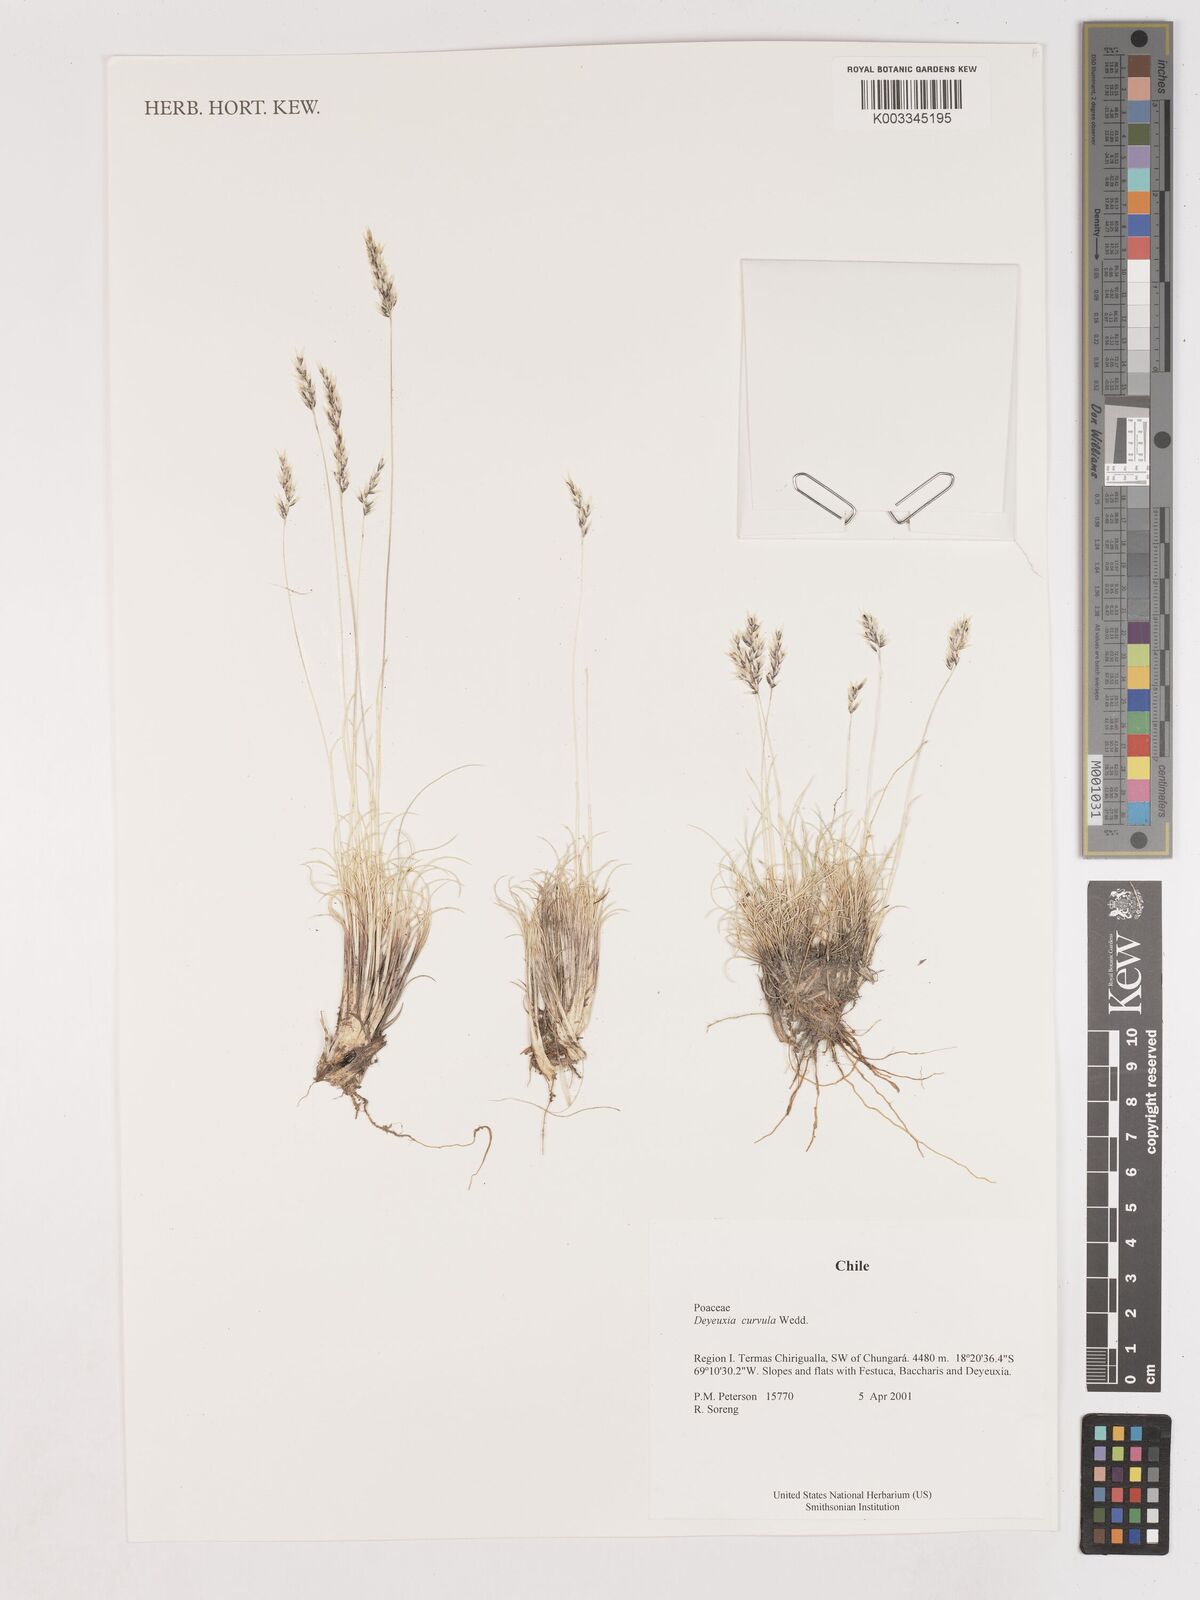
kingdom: Plantae
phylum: Tracheophyta
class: Liliopsida
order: Poales
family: Poaceae
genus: Cinnagrostis
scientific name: Cinnagrostis curvula
